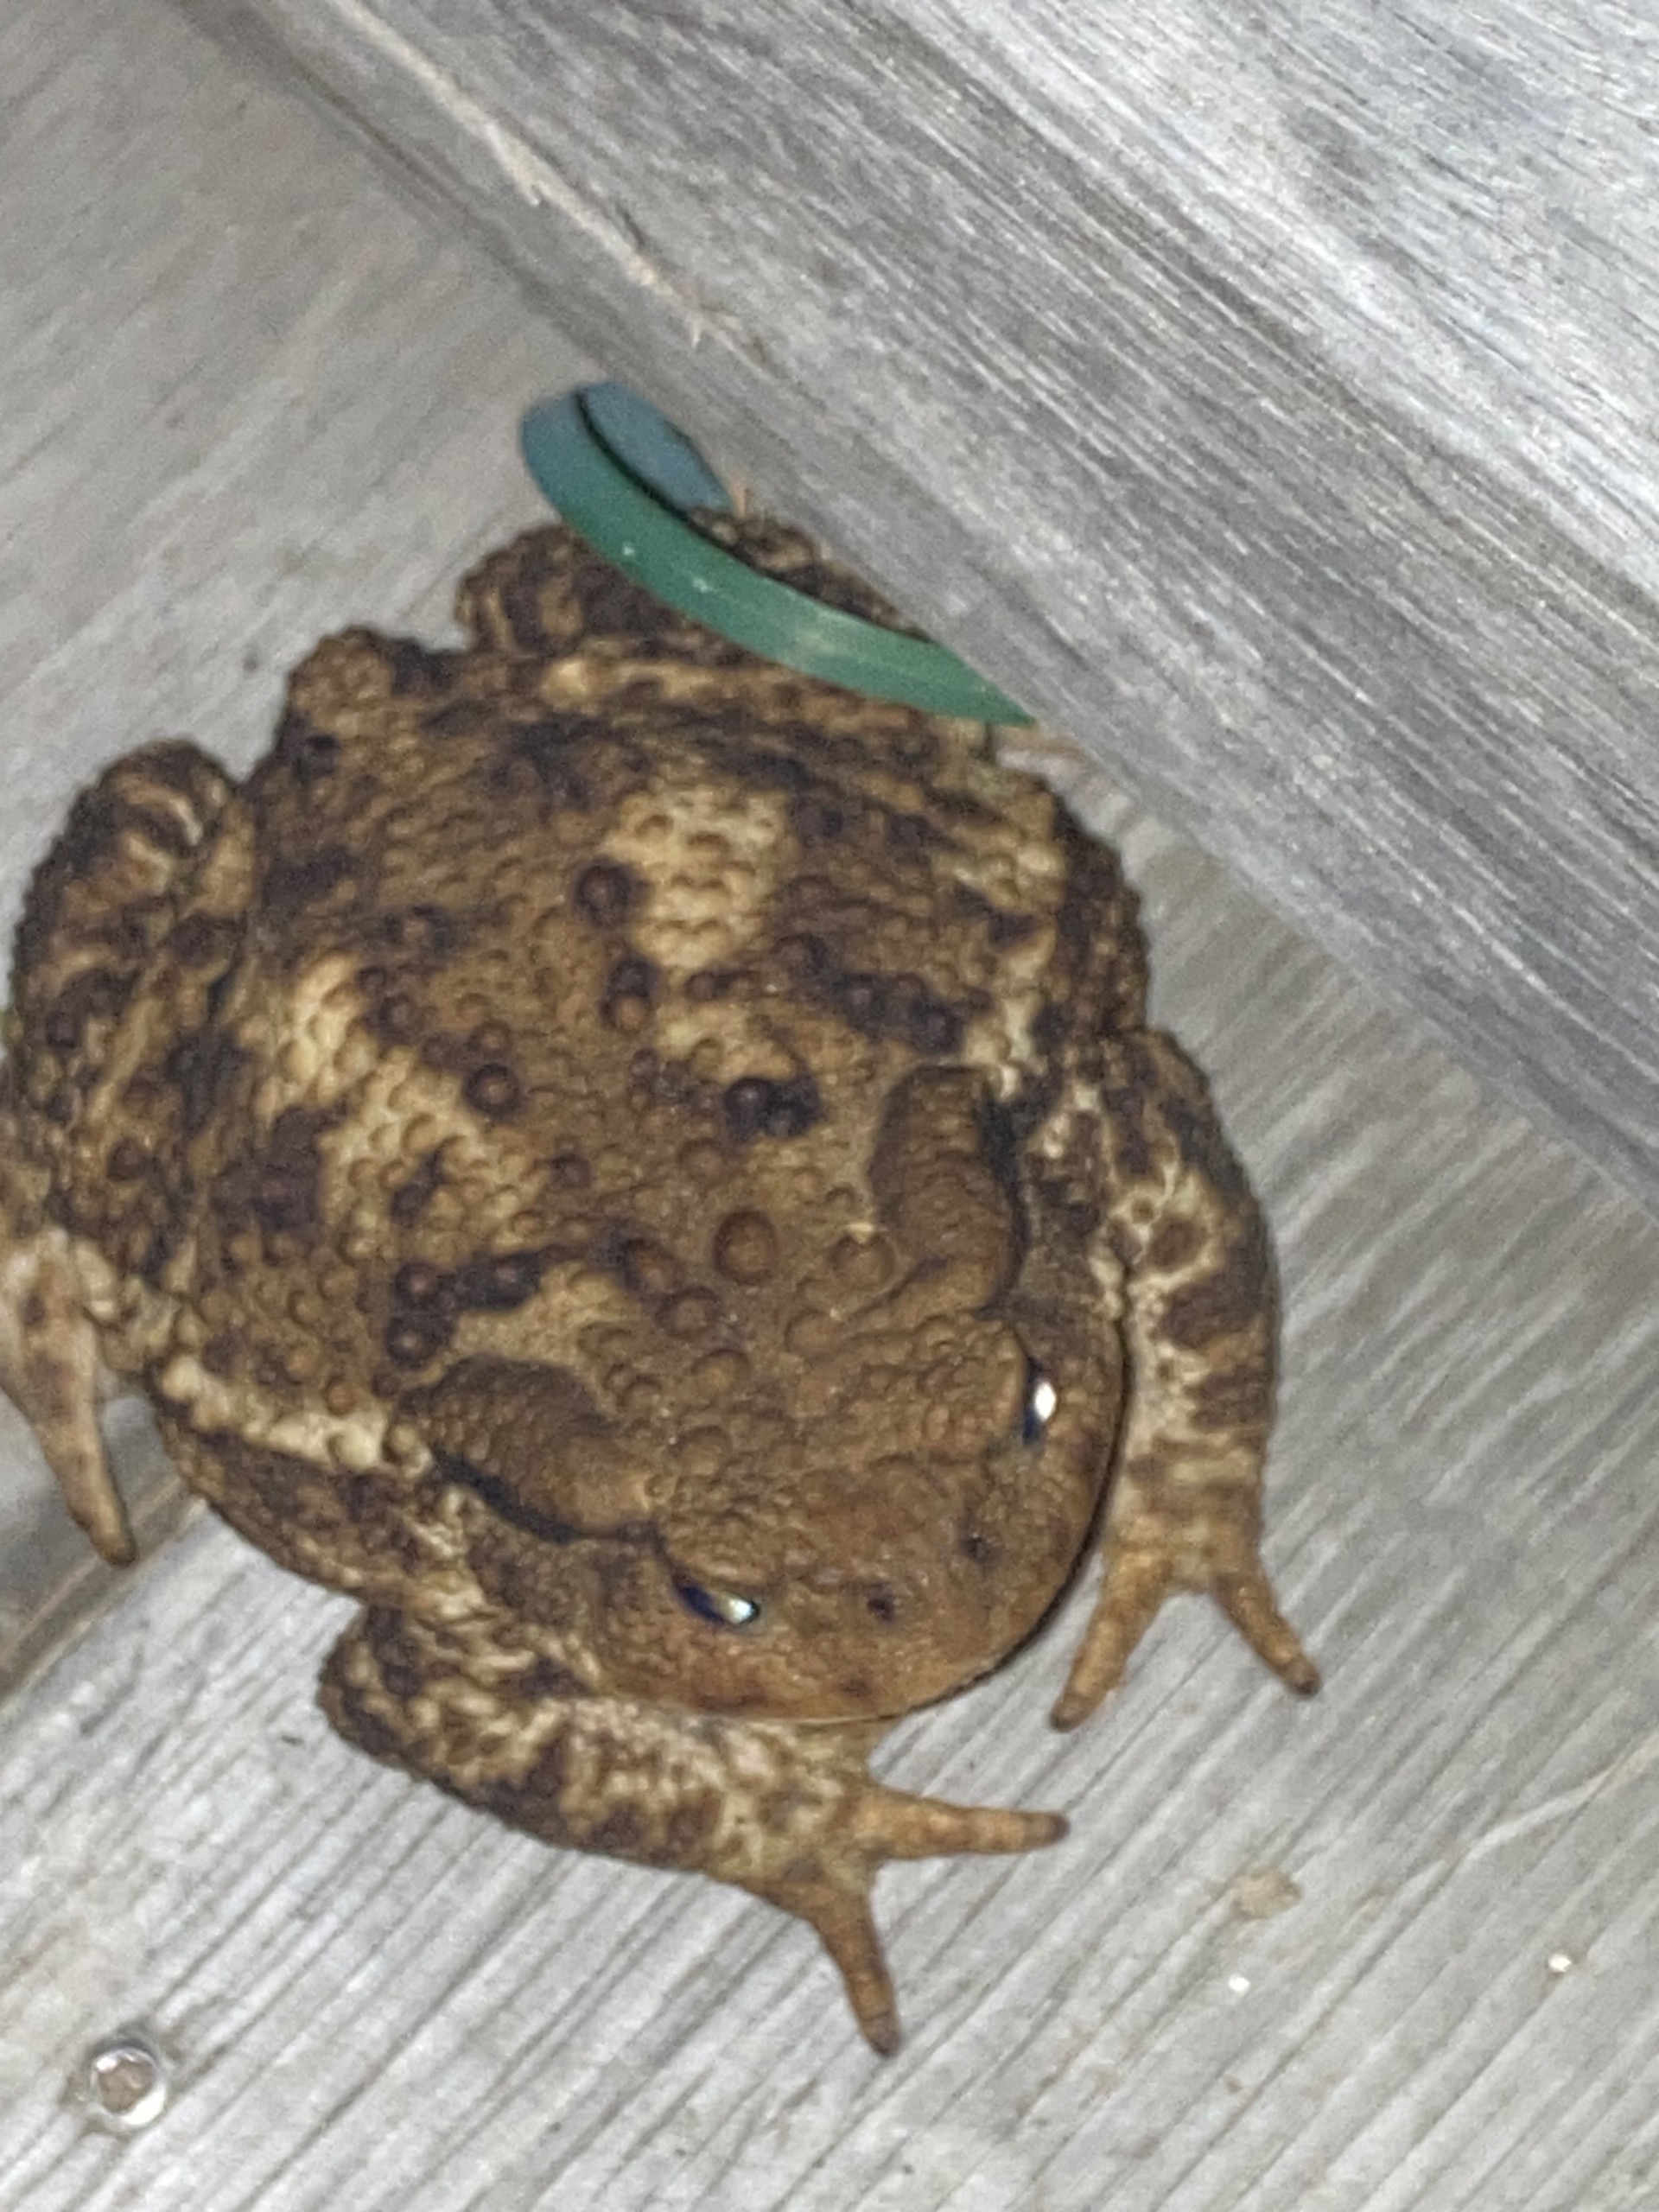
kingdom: Animalia
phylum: Chordata
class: Amphibia
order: Anura
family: Bufonidae
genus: Bufo
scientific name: Bufo bufo
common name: Skrubtudse
